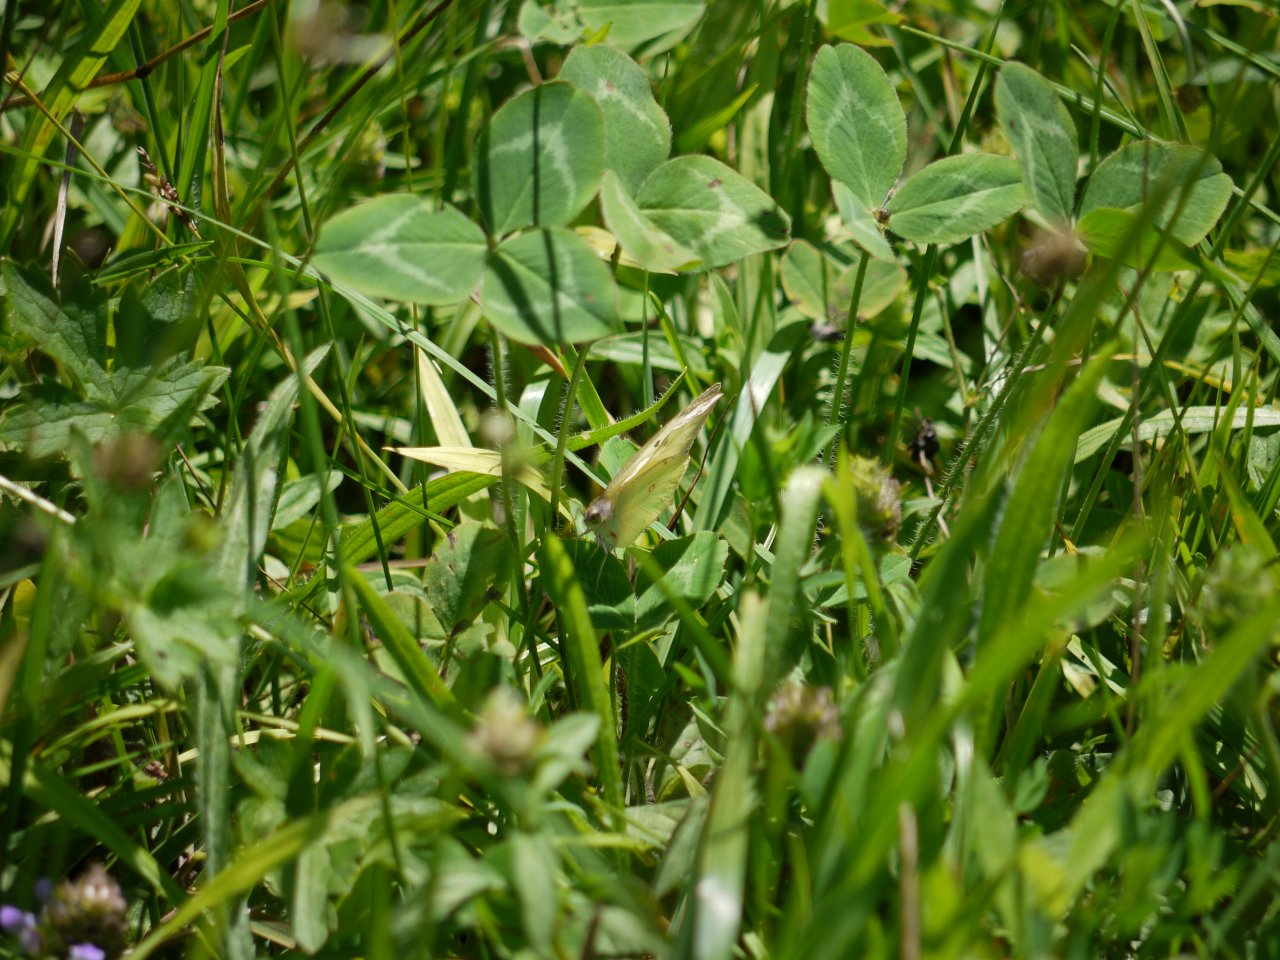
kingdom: Animalia
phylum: Arthropoda
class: Insecta
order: Lepidoptera
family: Pieridae
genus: Colias
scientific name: Colias philodice
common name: Clouded Sulphur
